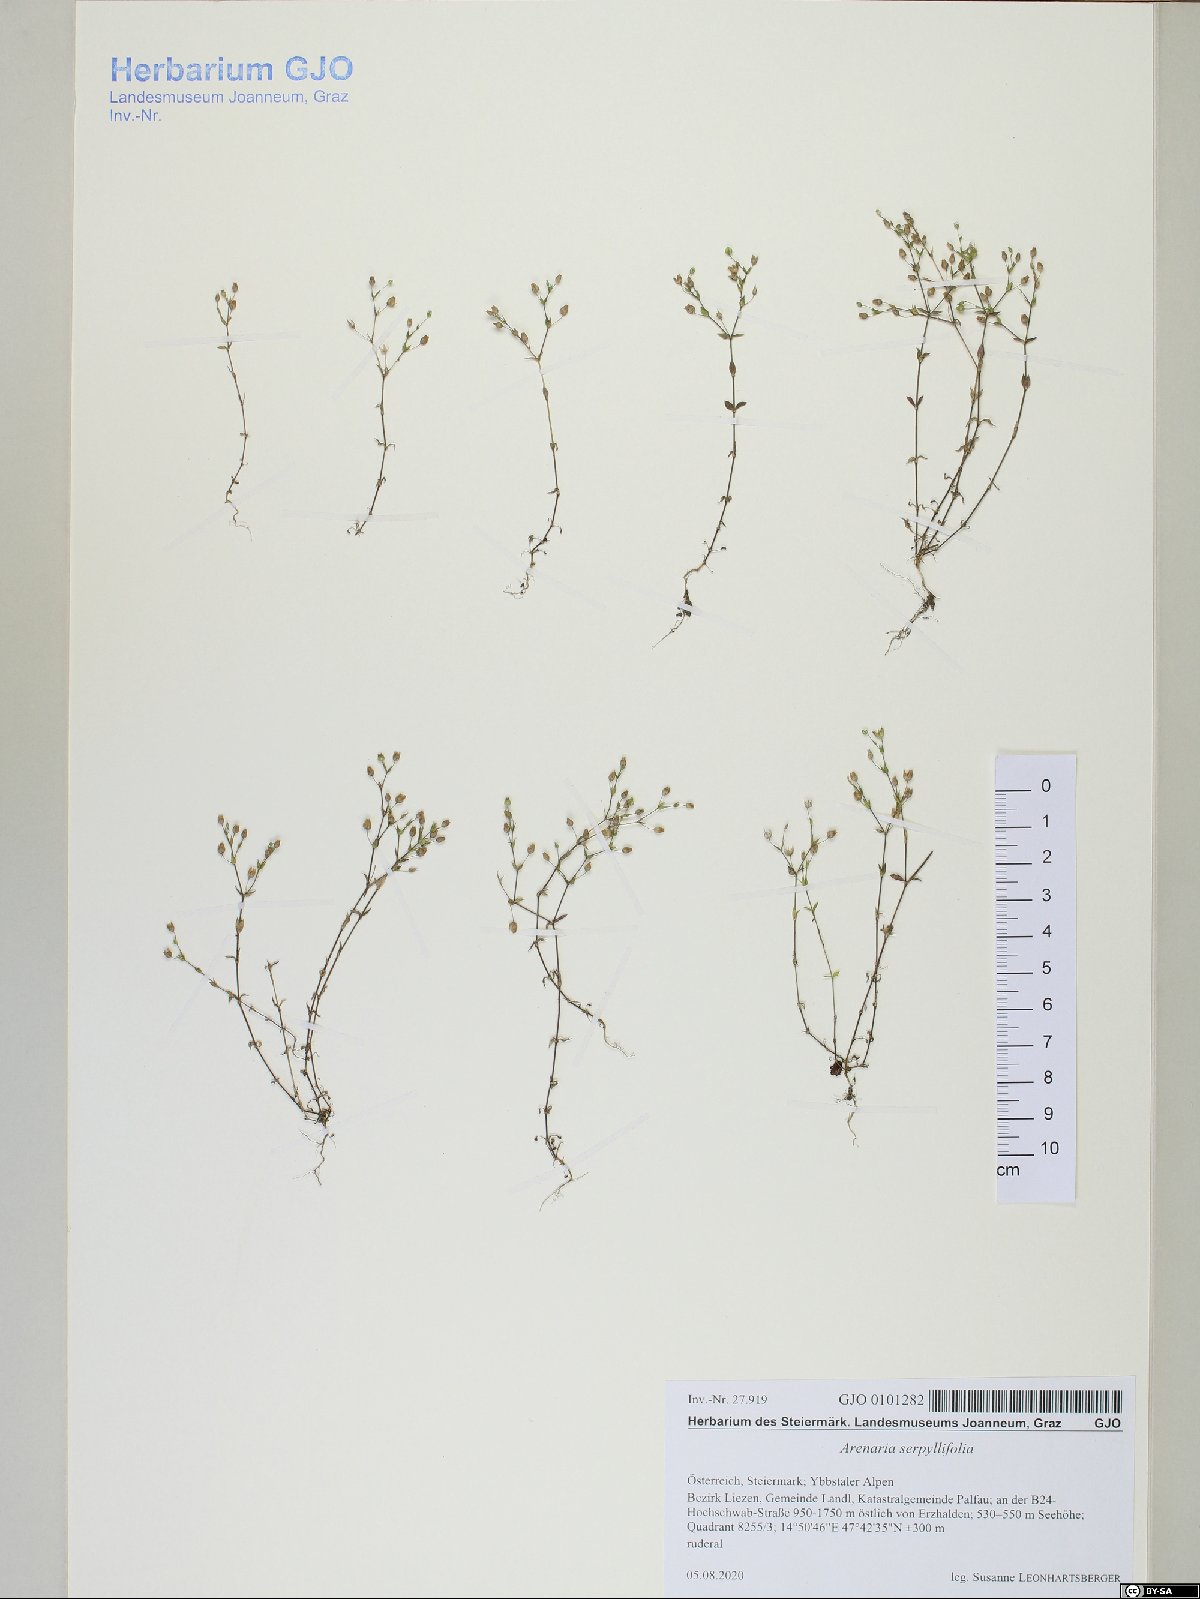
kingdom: Plantae
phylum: Tracheophyta
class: Magnoliopsida
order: Caryophyllales
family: Caryophyllaceae
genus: Arenaria
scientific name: Arenaria serpyllifolia
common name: Thyme-leaved sandwort
